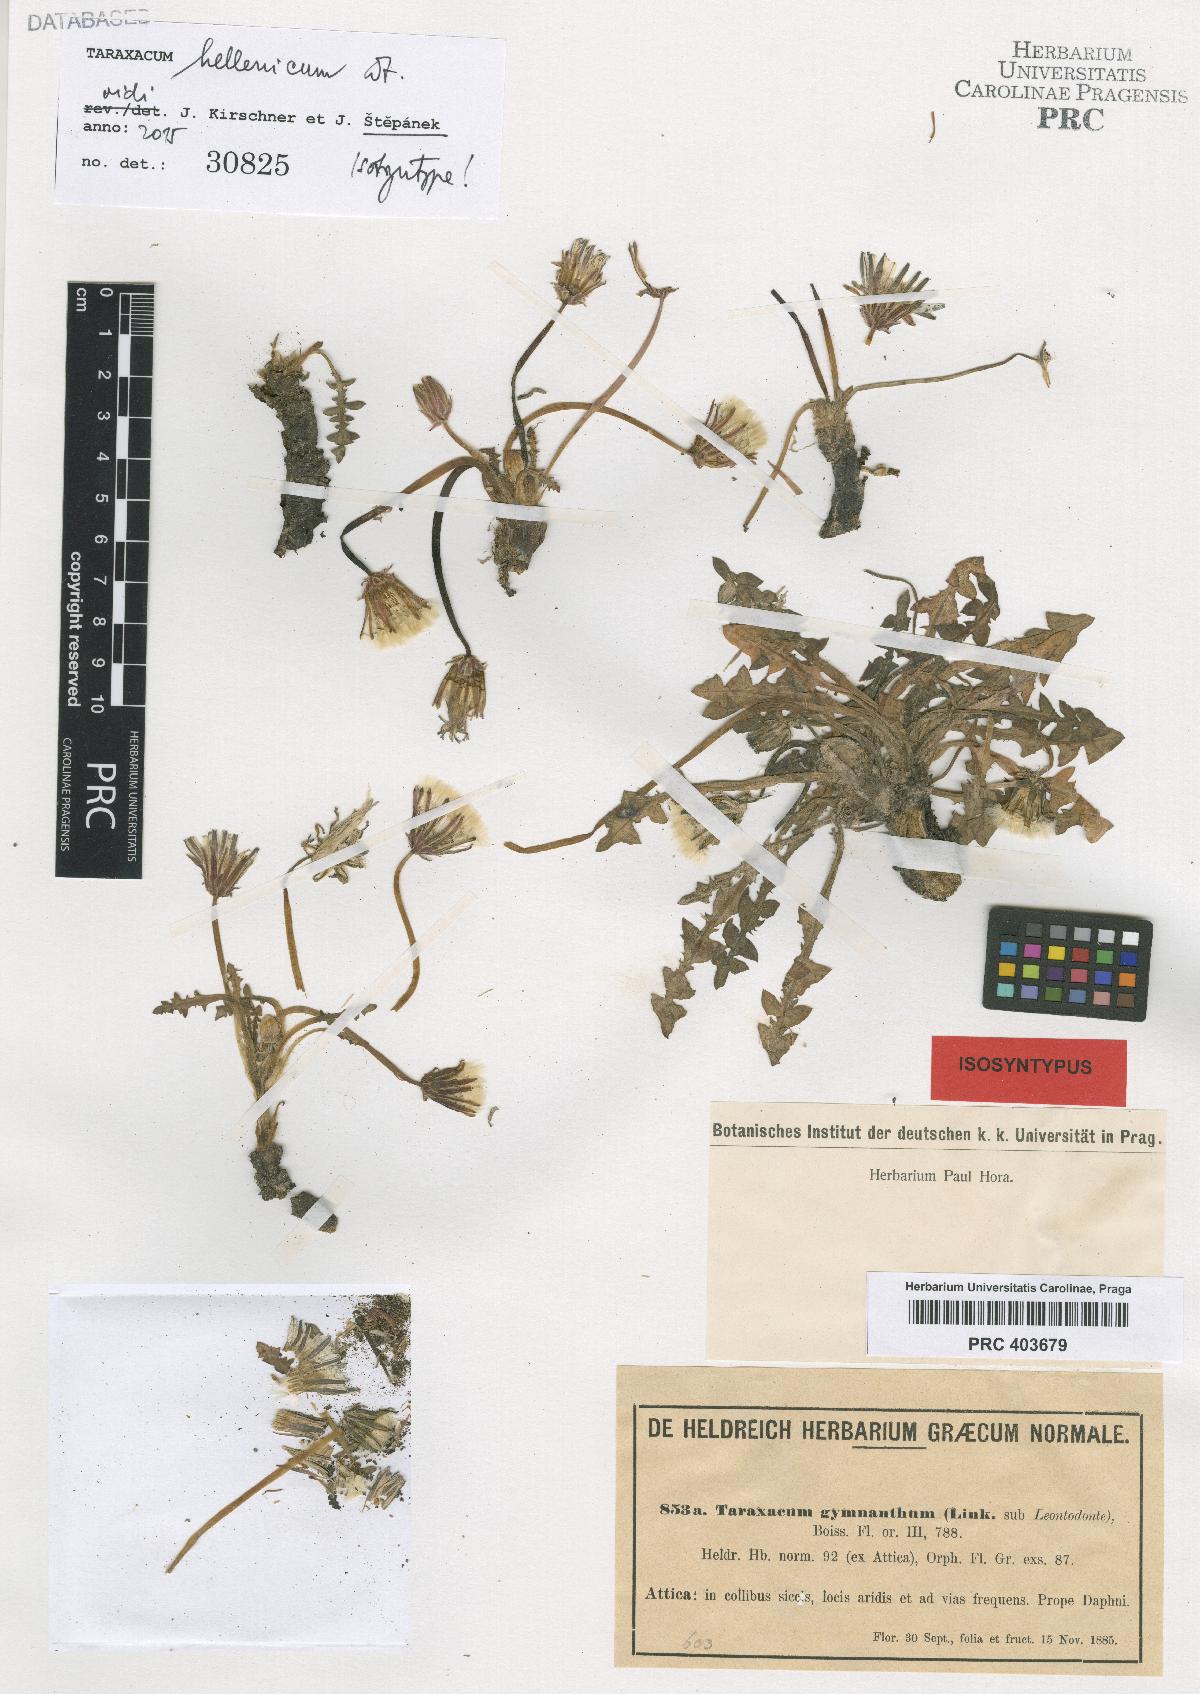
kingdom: Plantae
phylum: Tracheophyta
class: Magnoliopsida
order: Asterales
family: Asteraceae
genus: Taraxacum
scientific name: Taraxacum hellenicum
